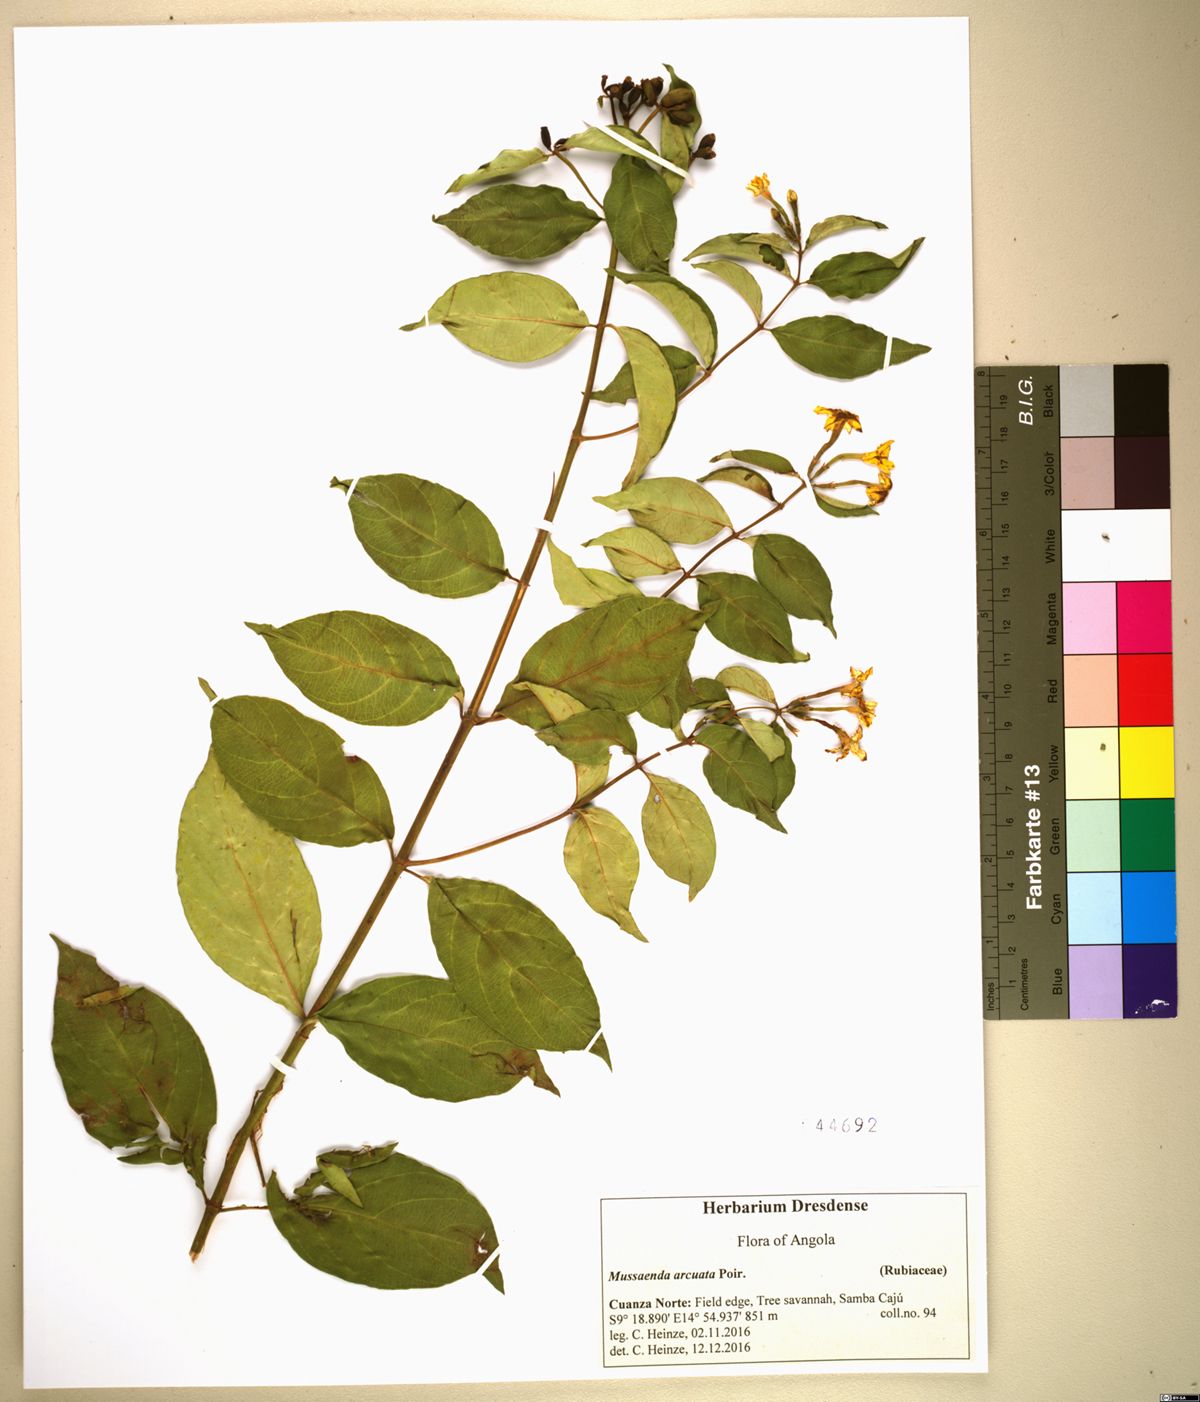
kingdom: Plantae
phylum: Tracheophyta
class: Magnoliopsida
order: Gentianales
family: Rubiaceae
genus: Mussaenda
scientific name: Mussaenda arcuata
